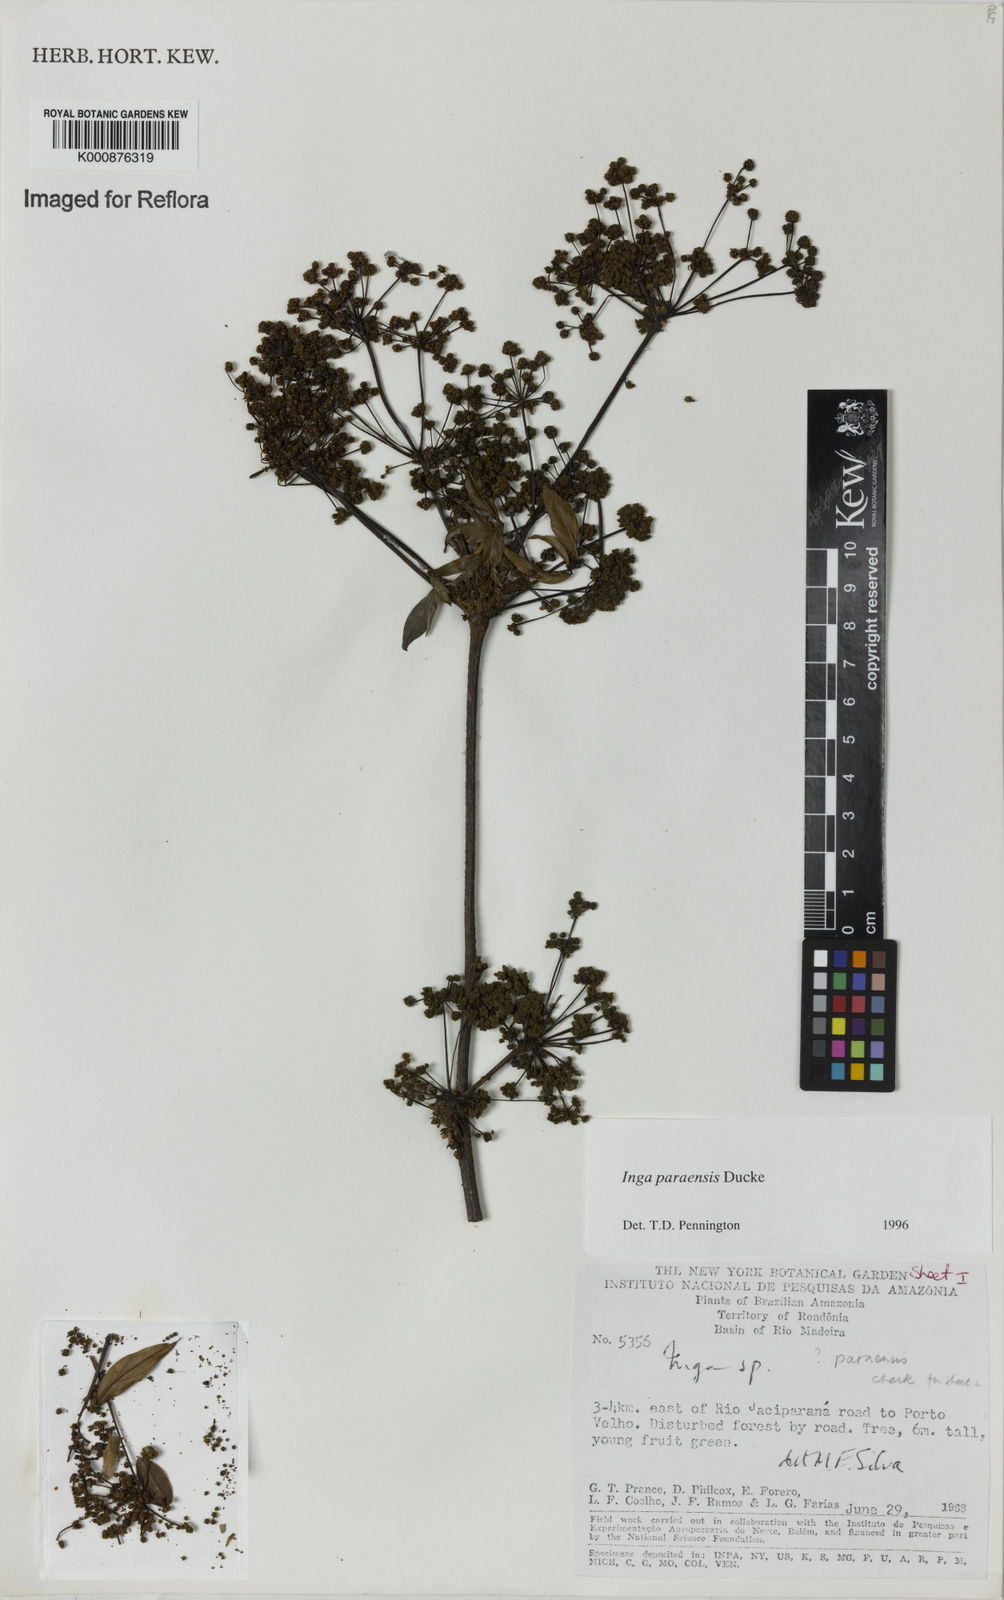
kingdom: Plantae
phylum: Tracheophyta
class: Magnoliopsida
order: Fabales
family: Fabaceae
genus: Inga
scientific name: Inga paraensis
